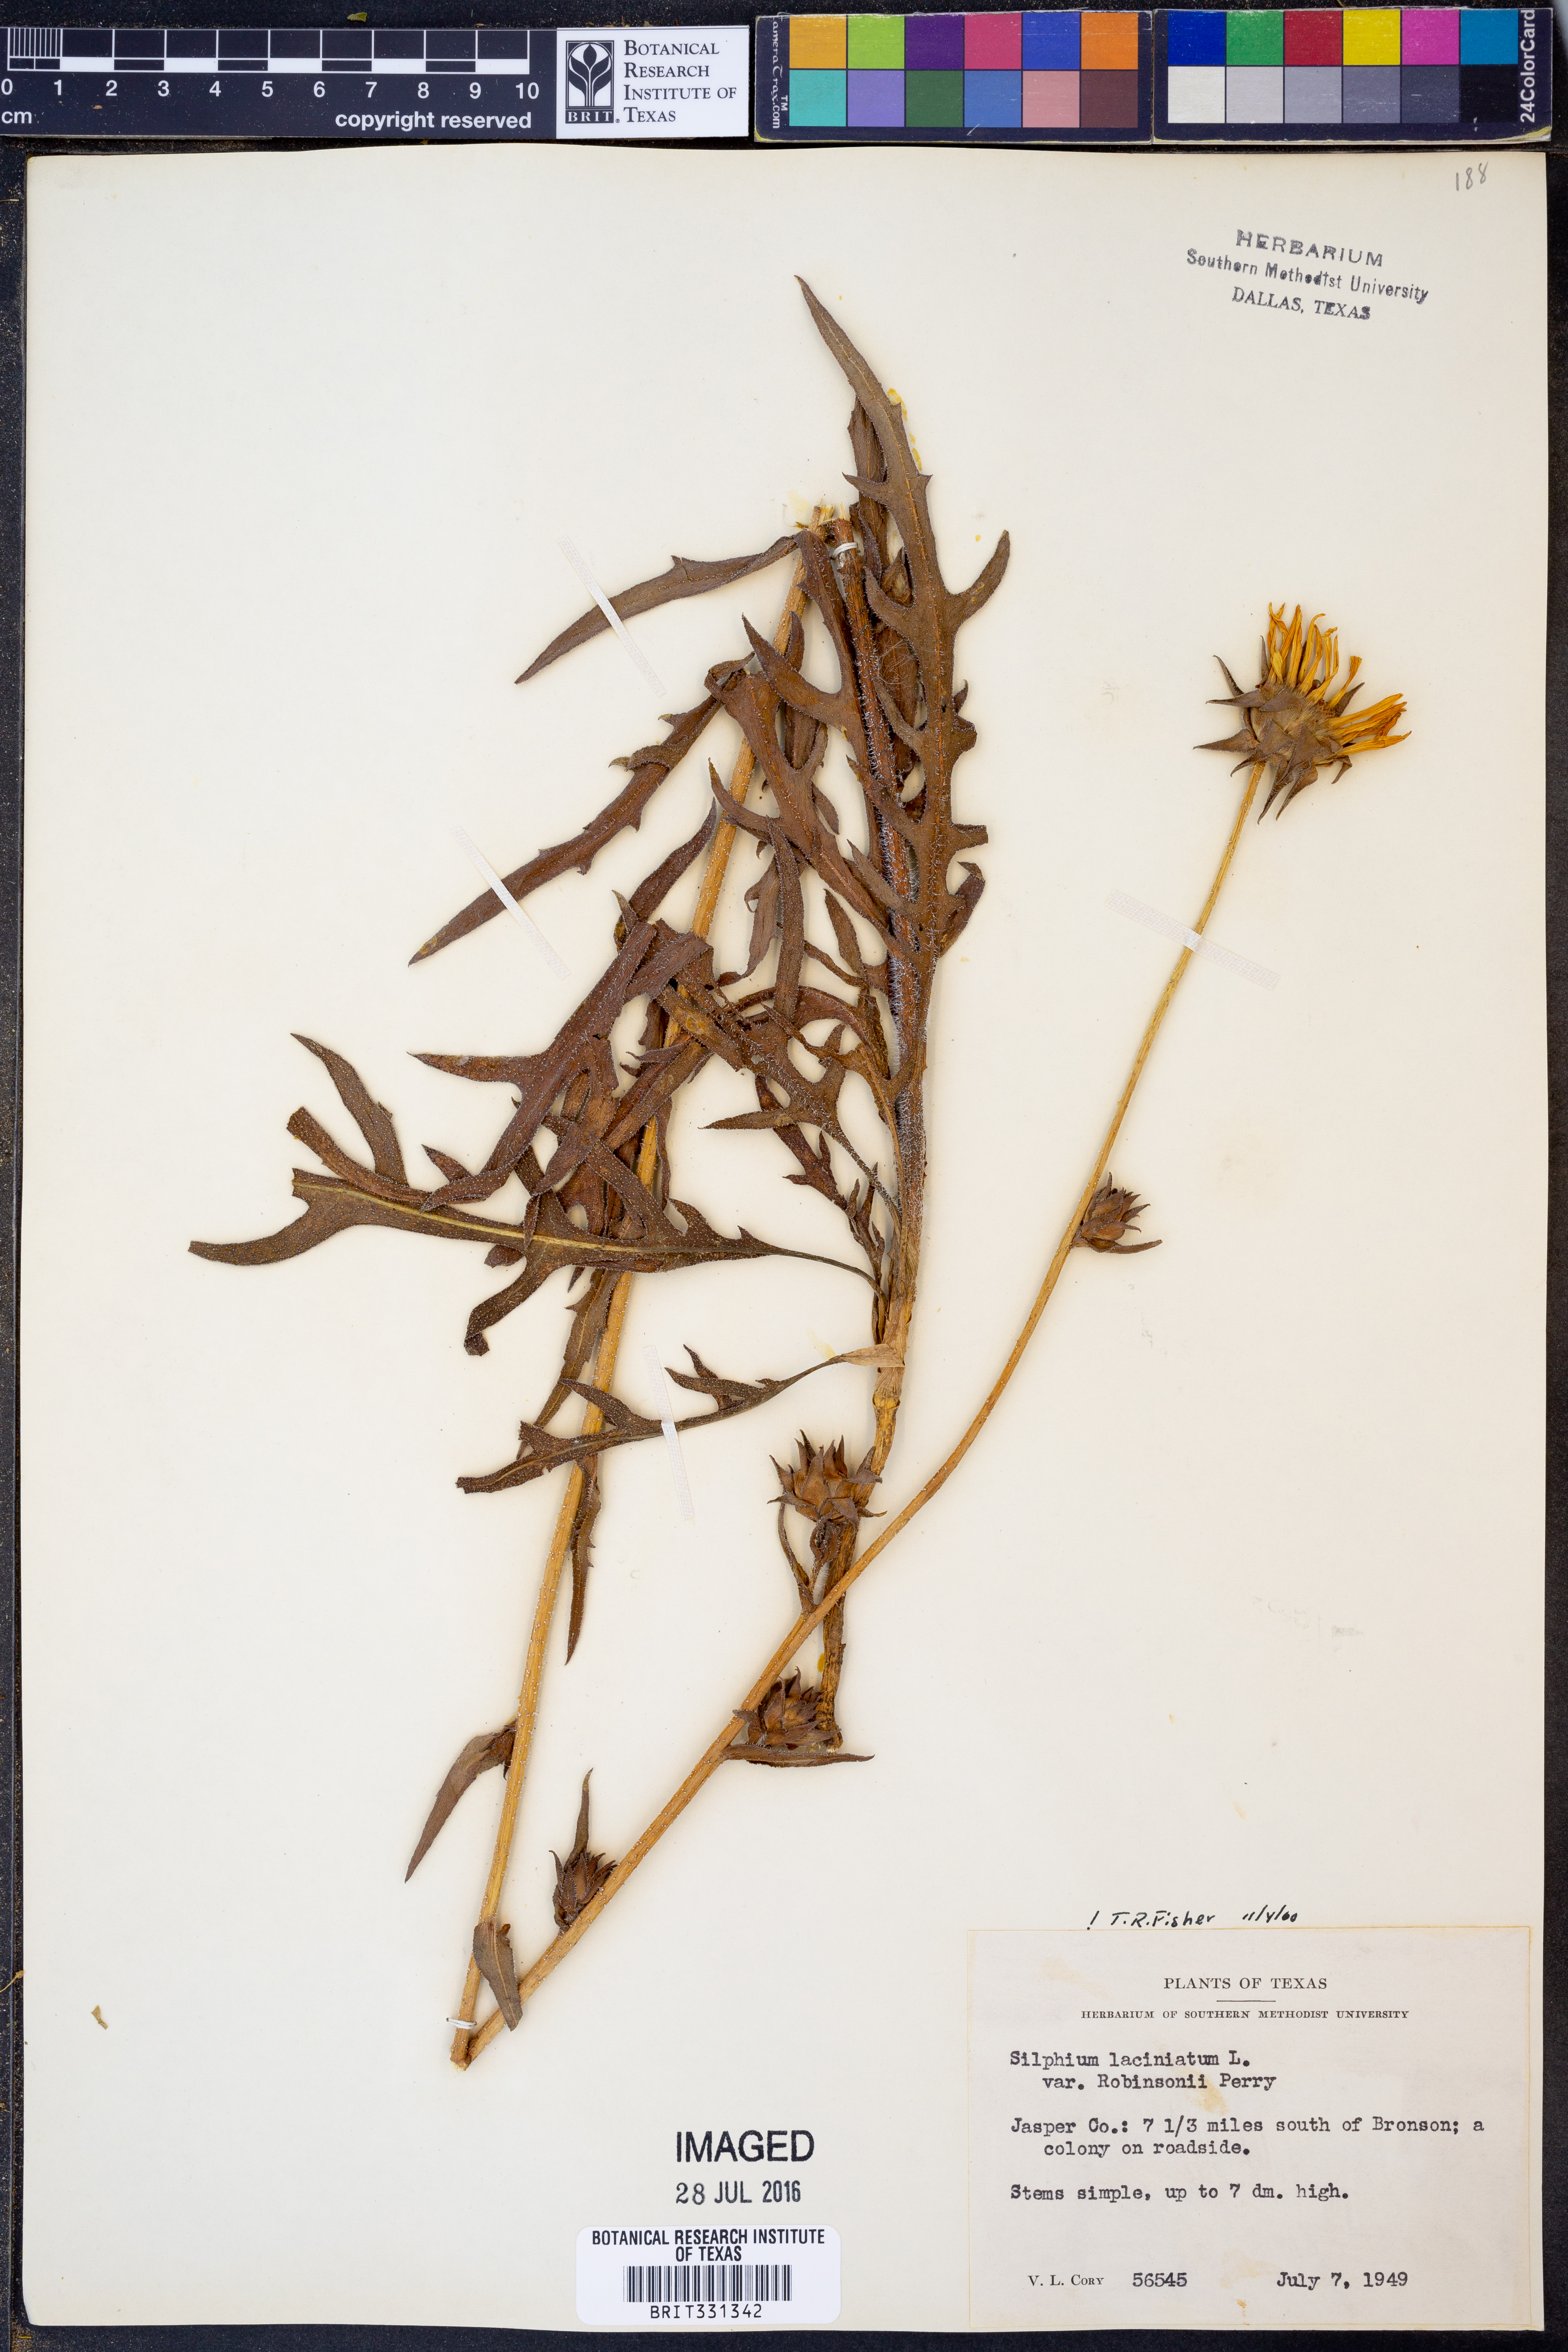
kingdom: Plantae
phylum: Tracheophyta
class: Magnoliopsida
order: Asterales
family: Asteraceae
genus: Silphium
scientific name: Silphium laciniatum
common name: Polarplant
